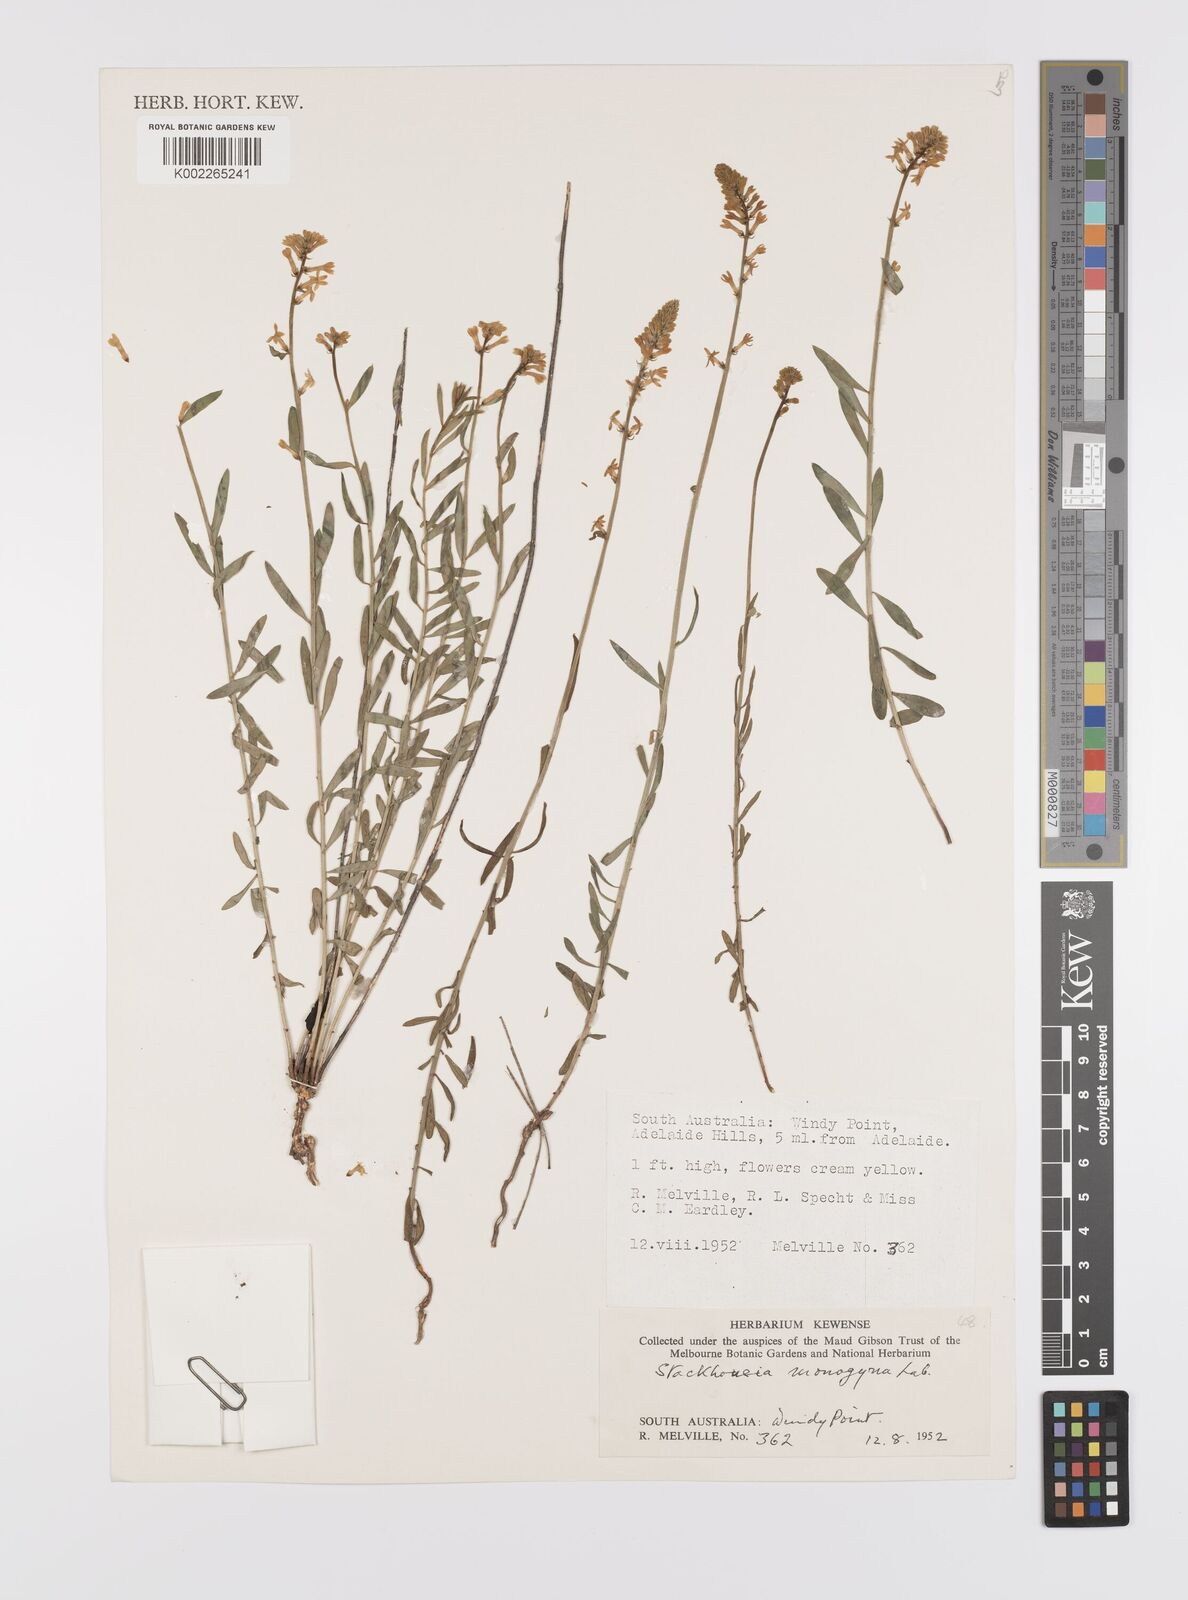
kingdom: Plantae
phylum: Tracheophyta
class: Magnoliopsida
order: Celastrales
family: Celastraceae
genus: Stackhousia
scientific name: Stackhousia monogyna
